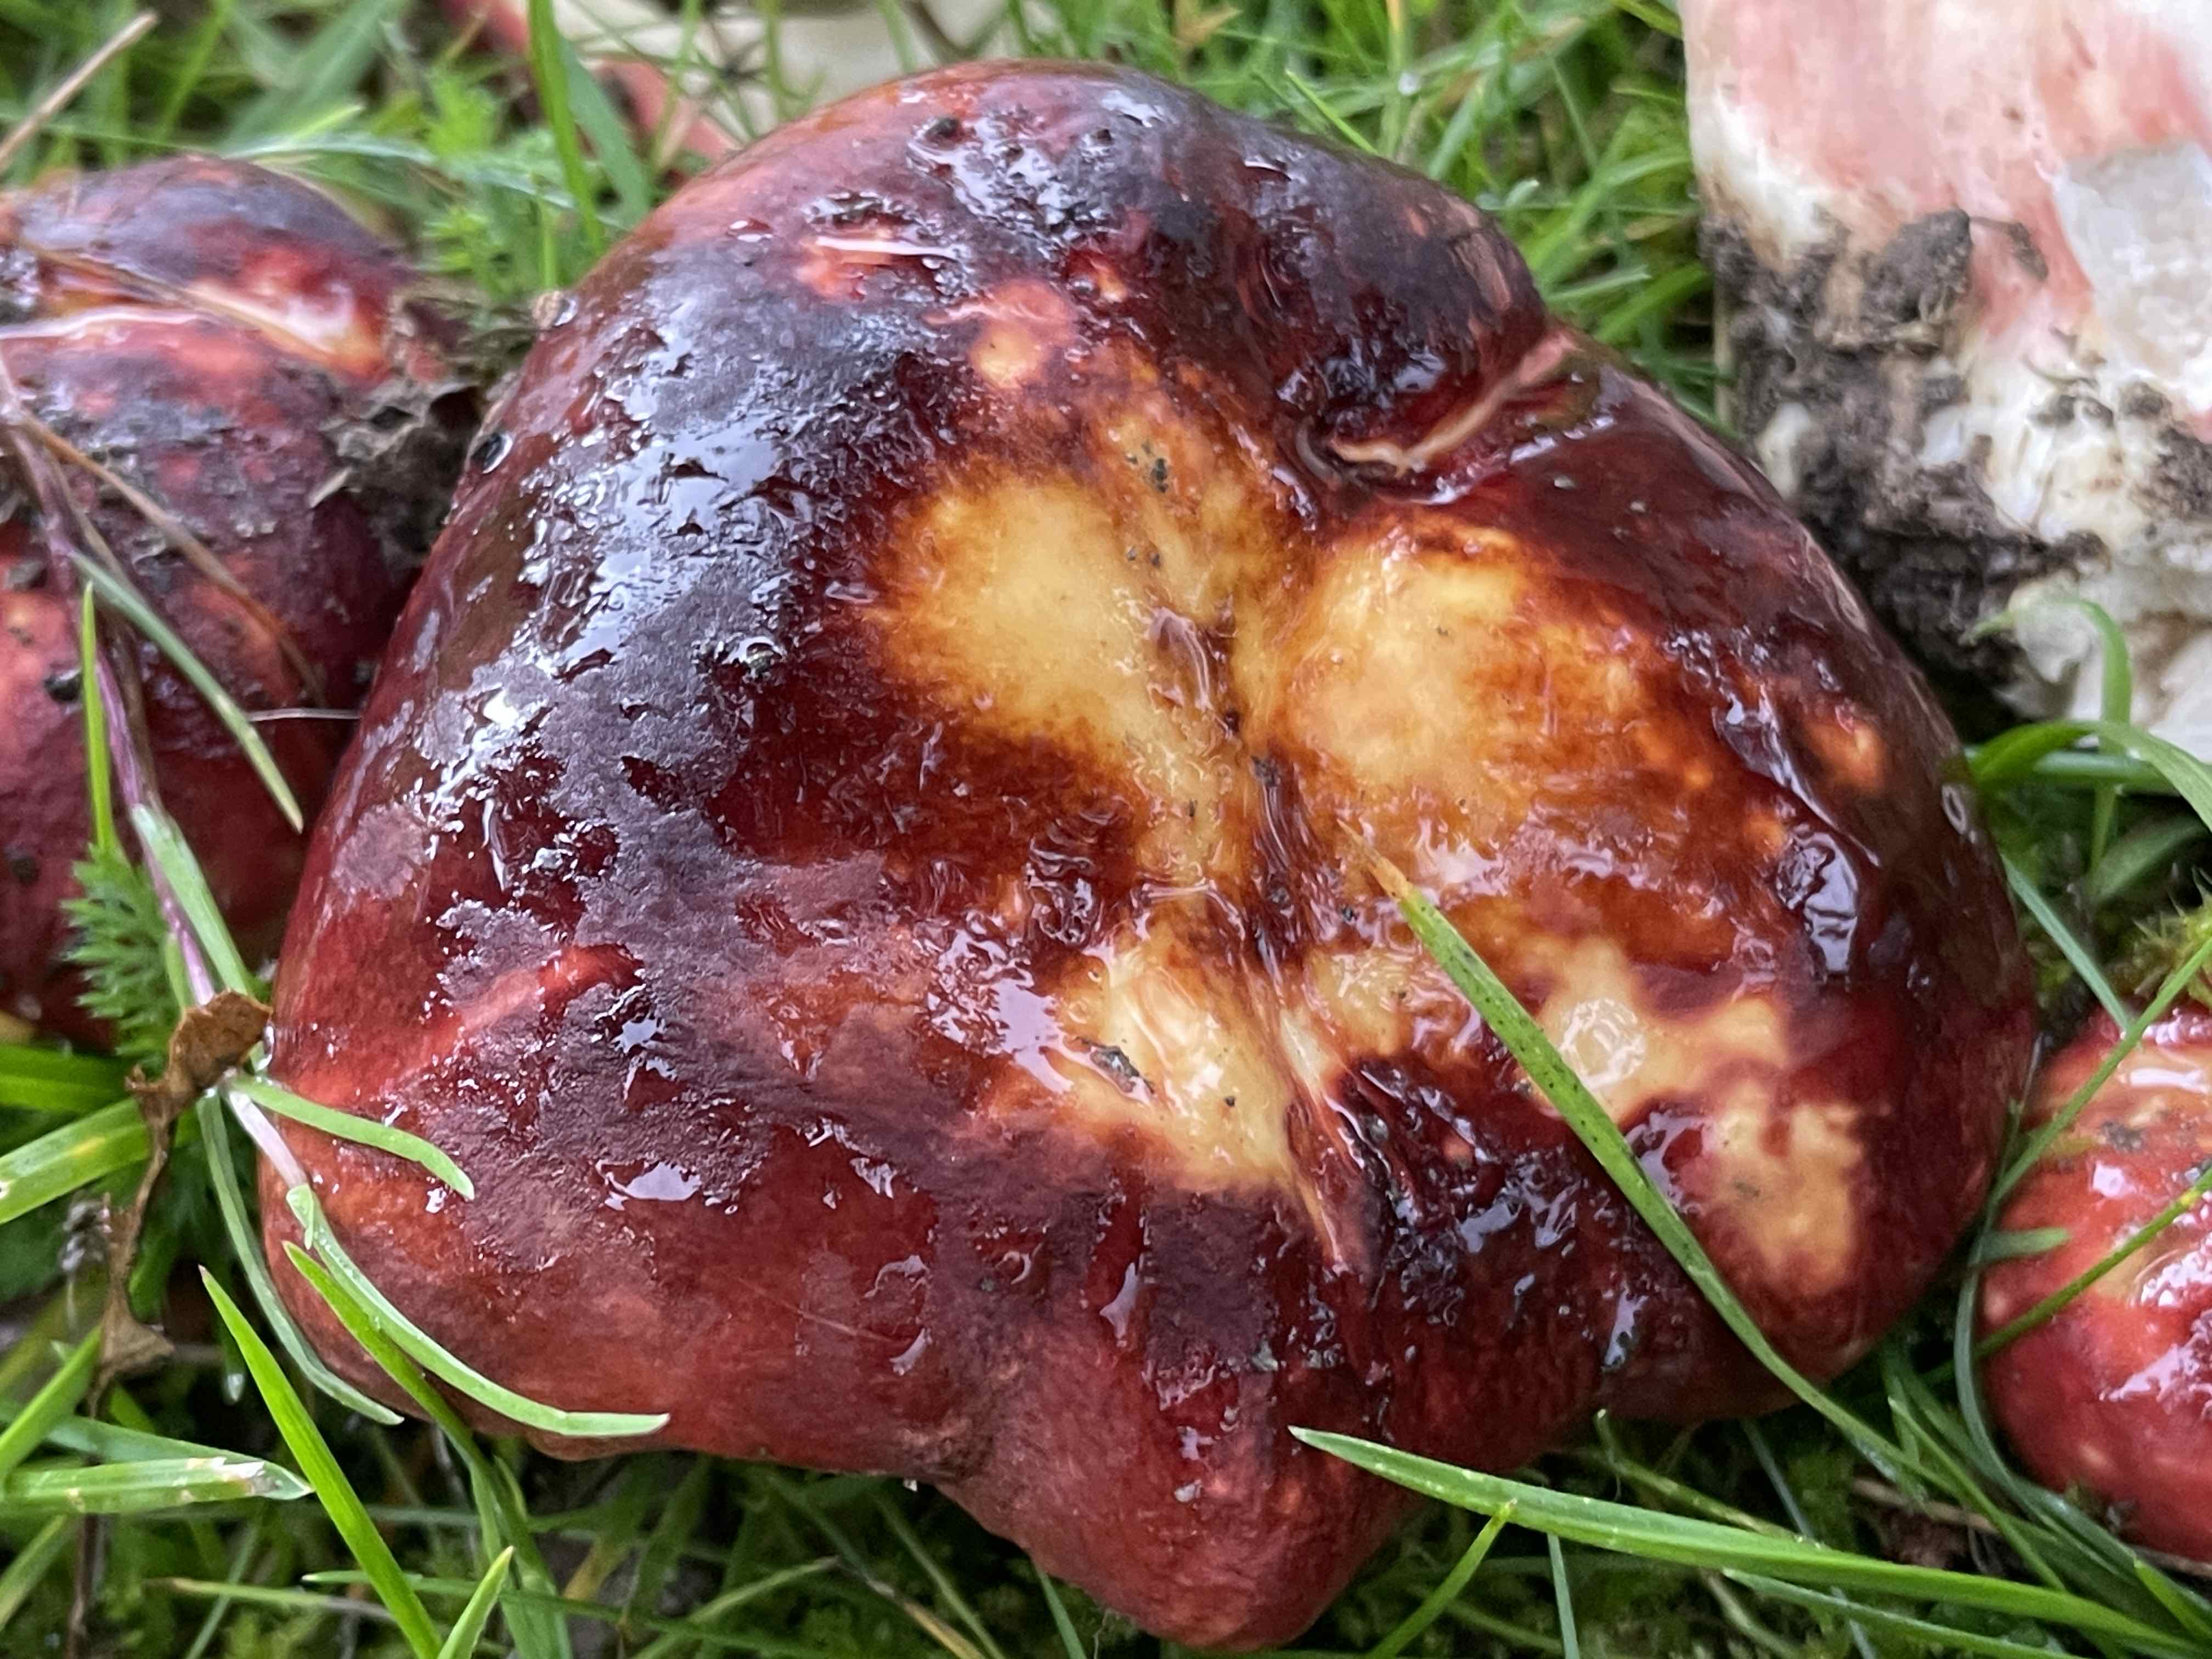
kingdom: Fungi
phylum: Basidiomycota
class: Agaricomycetes
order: Russulales
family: Russulaceae
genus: Russula
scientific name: Russula graveolens
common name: bugtet skørhat
